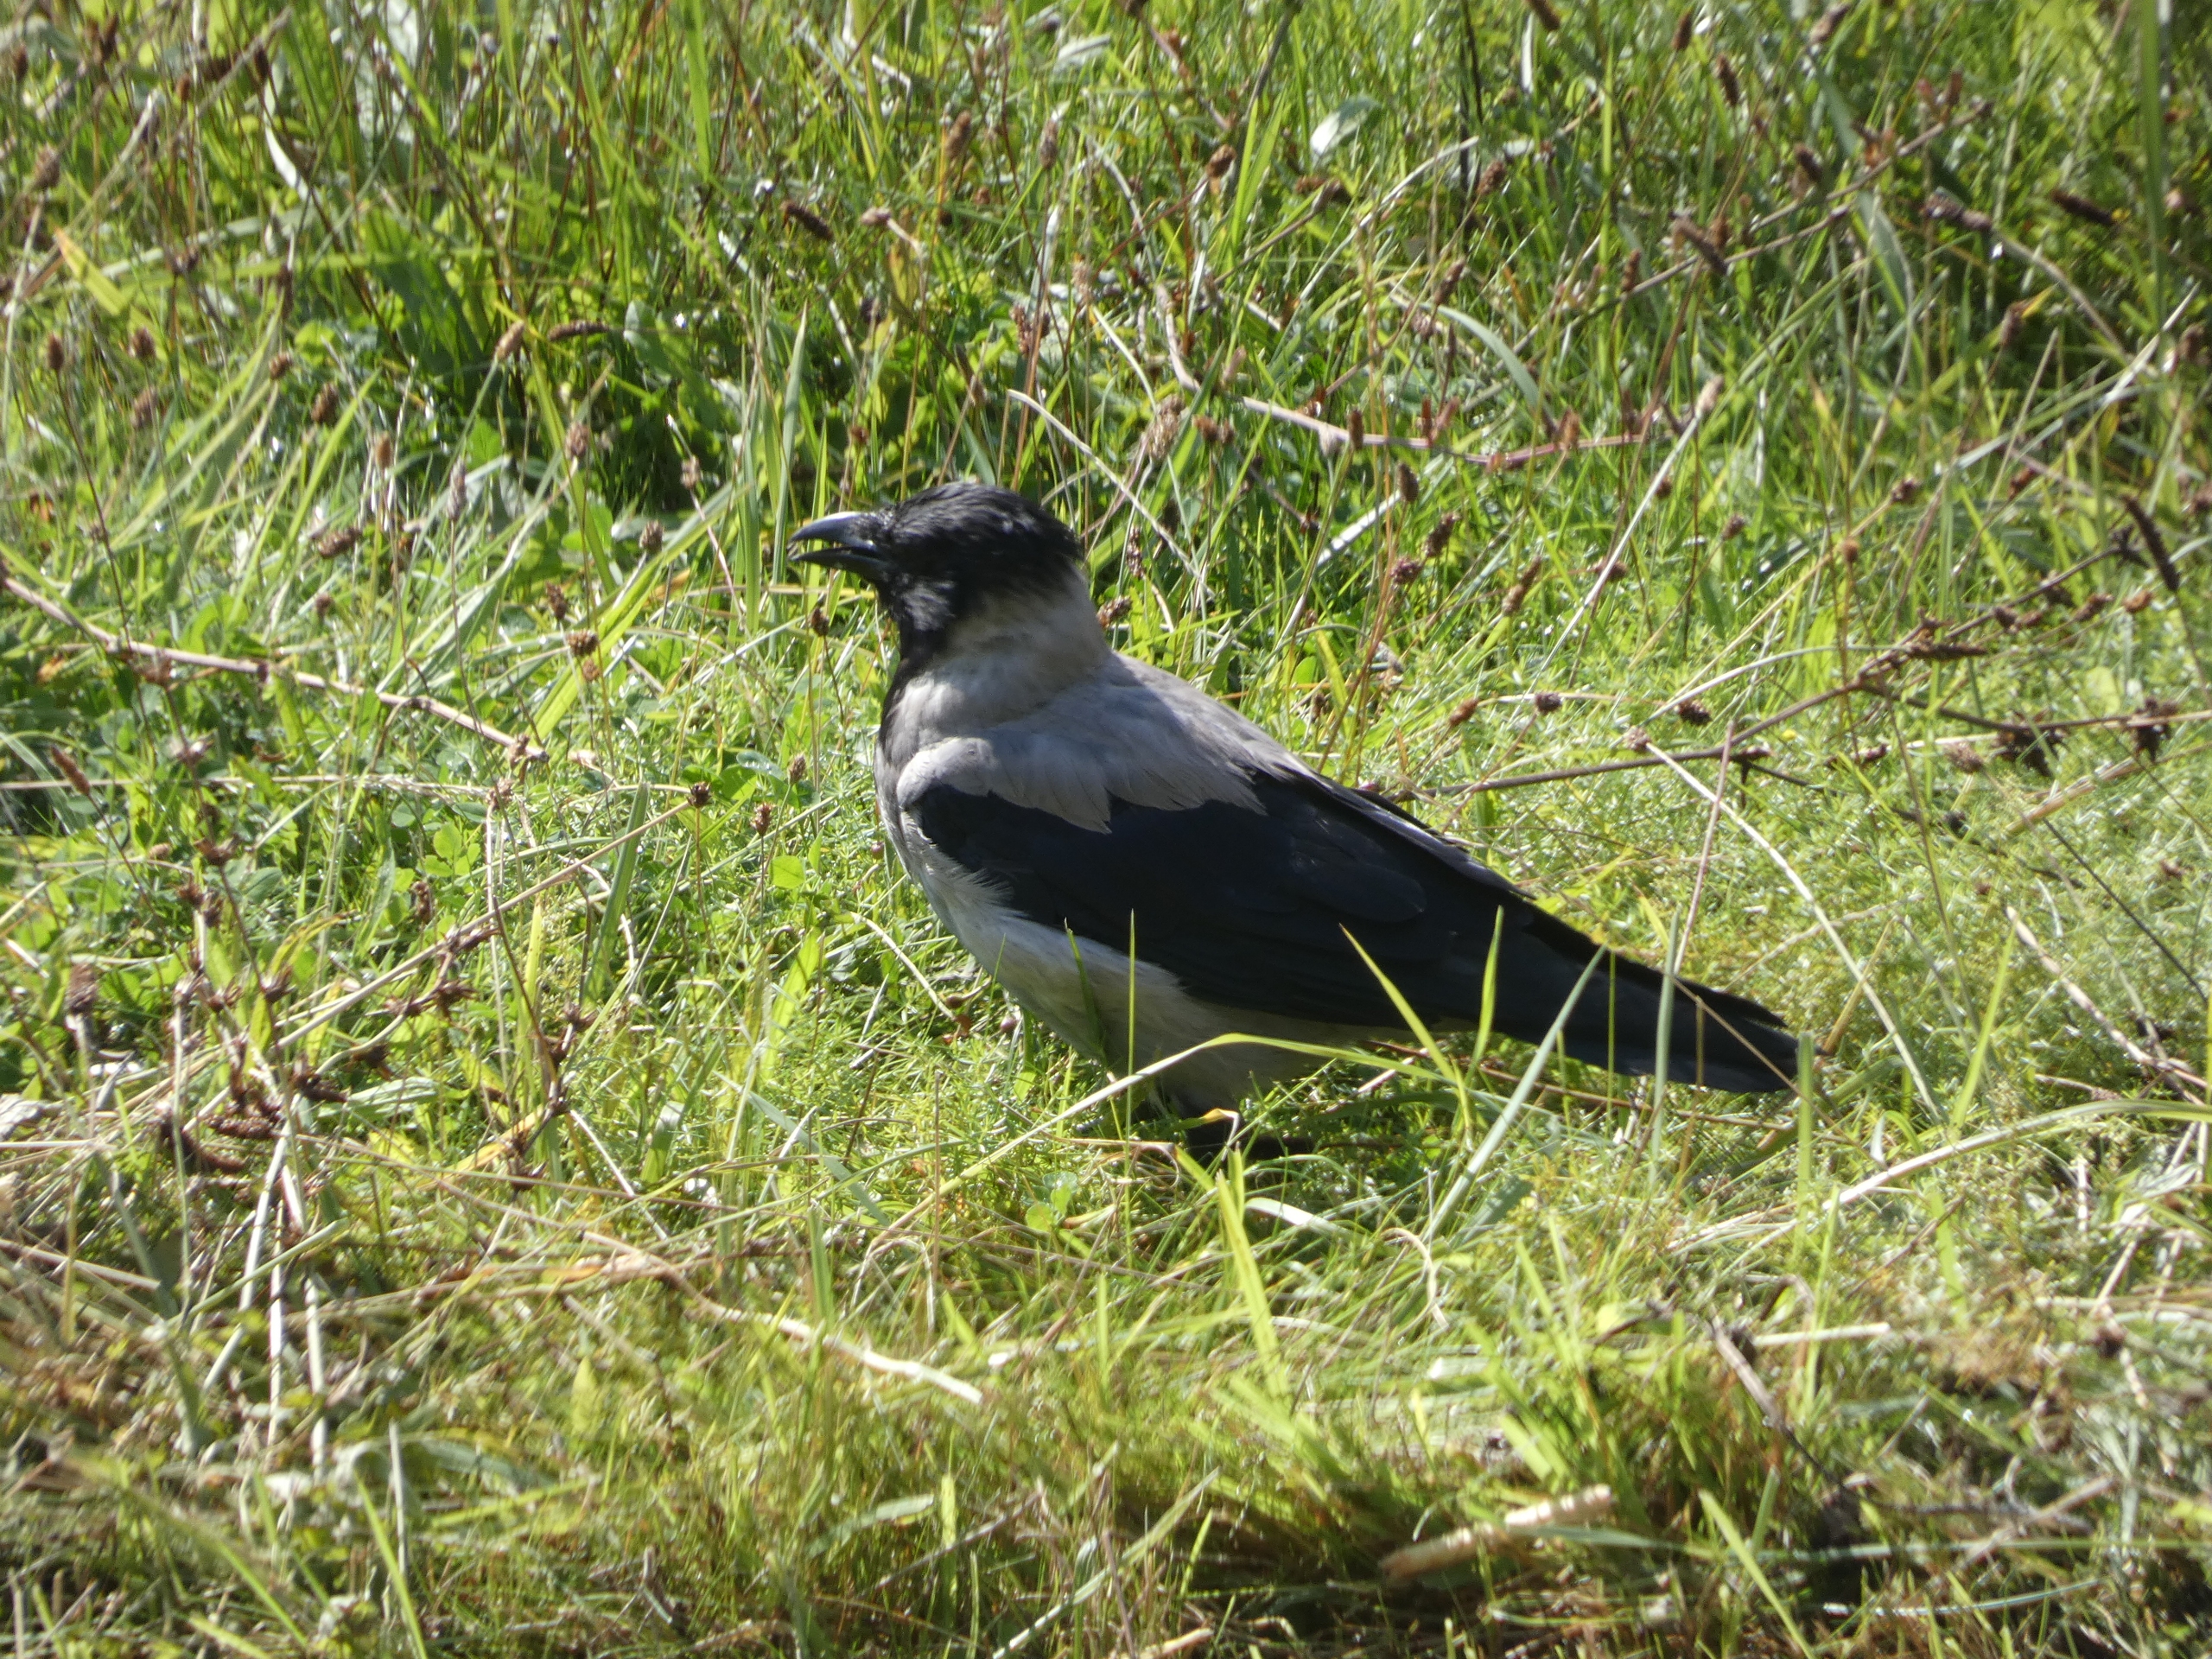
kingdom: Animalia
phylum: Chordata
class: Aves
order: Passeriformes
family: Corvidae
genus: Corvus
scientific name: Corvus cornix
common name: Gråkrage
